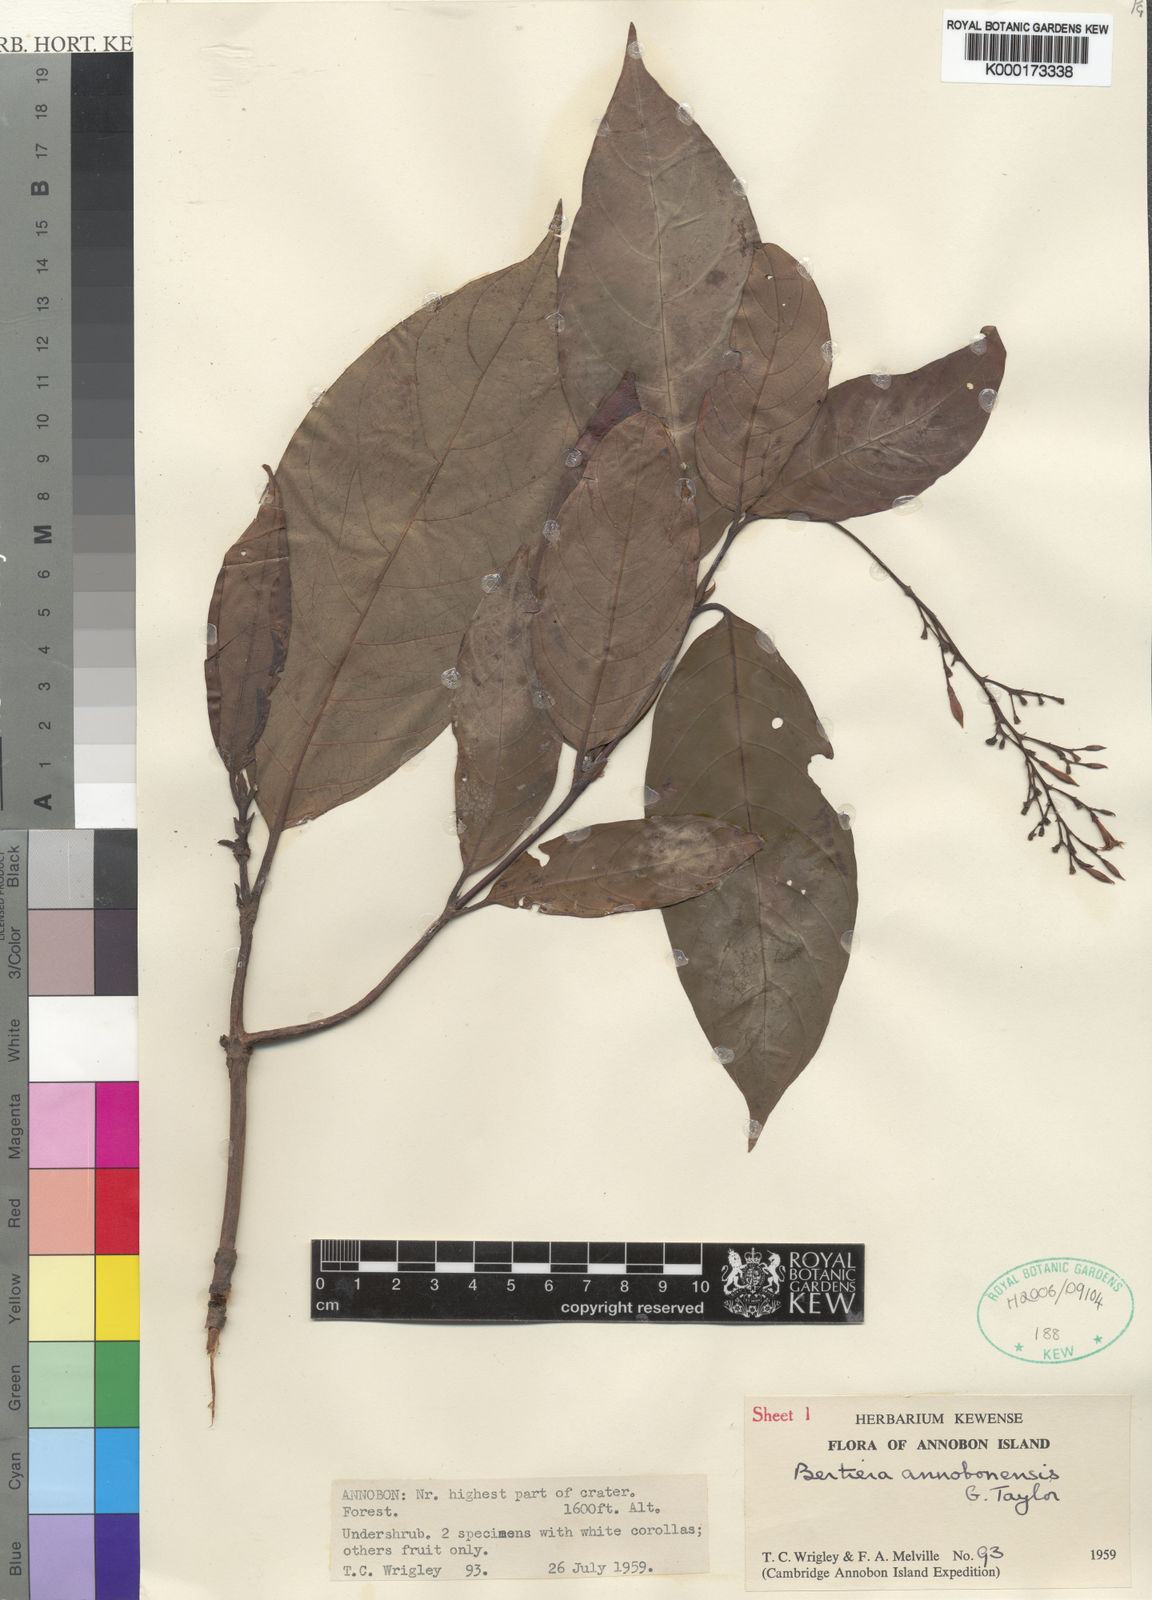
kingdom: Plantae
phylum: Tracheophyta
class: Magnoliopsida
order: Gentianales
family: Rubiaceae
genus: Bertiera
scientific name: Bertiera annobonensis
